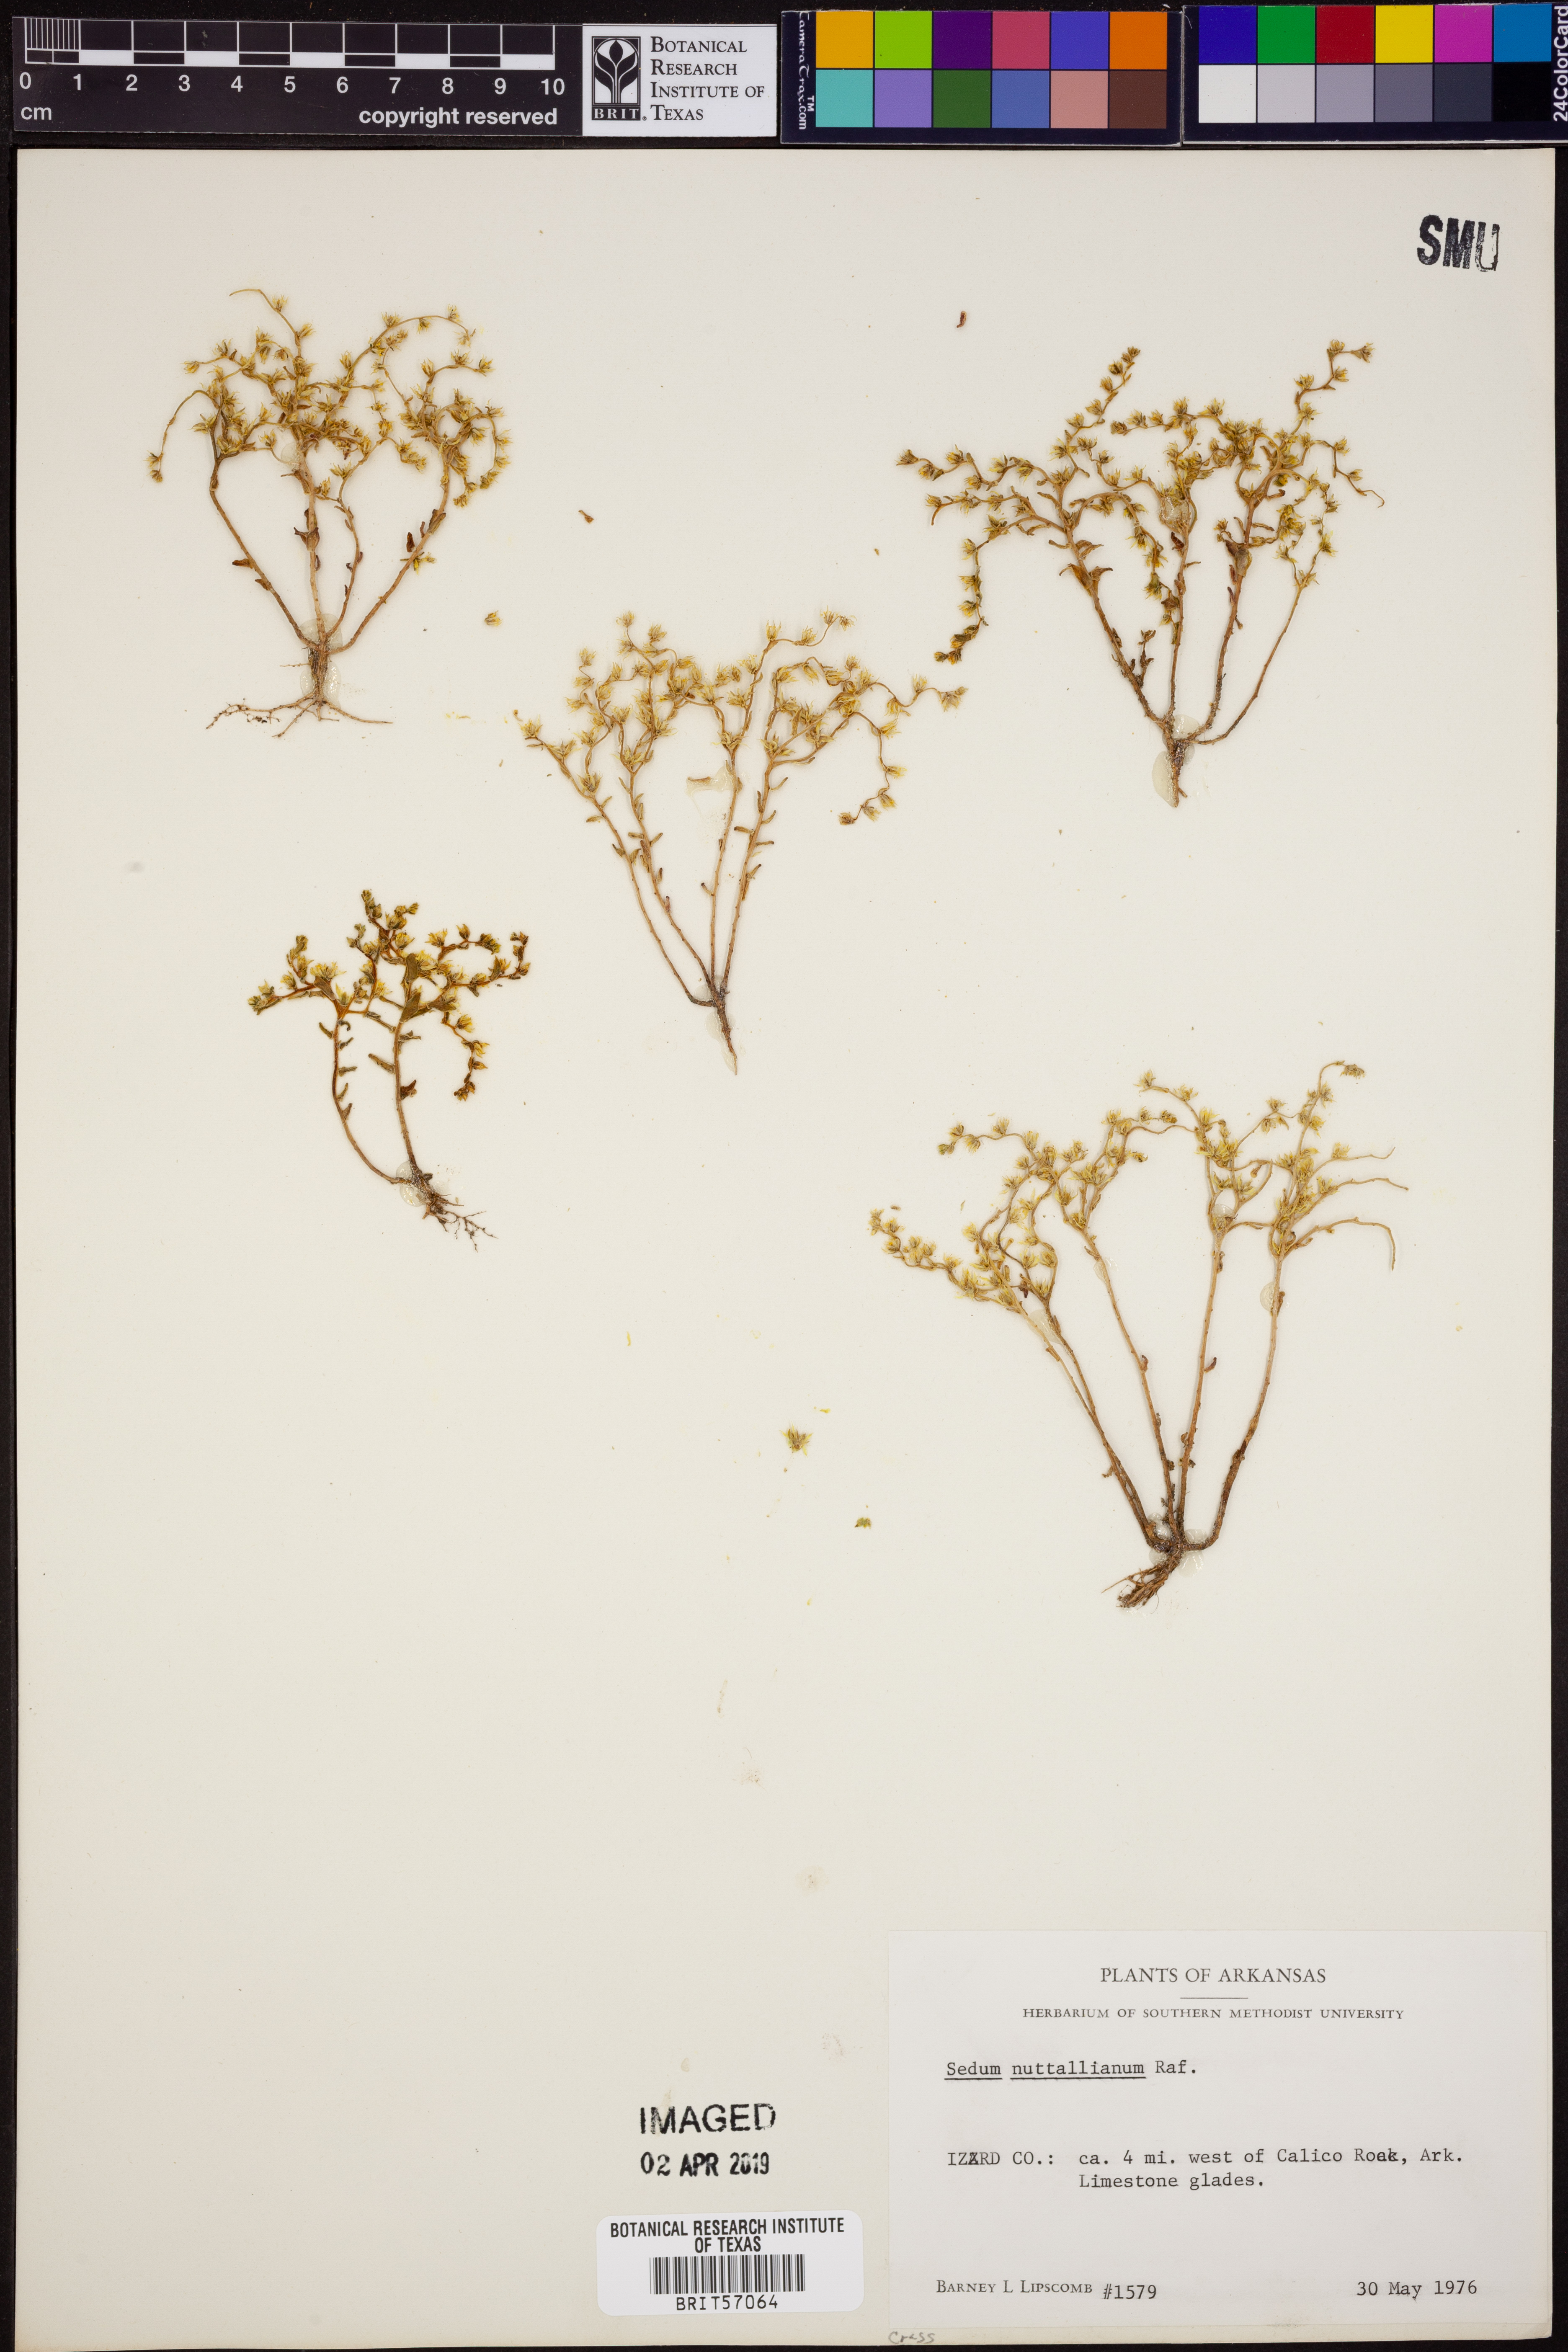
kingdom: Plantae
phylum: Tracheophyta
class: Magnoliopsida
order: Saxifragales
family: Crassulaceae
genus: Sedum
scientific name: Sedum nuttallii
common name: Yellow stonecrop
